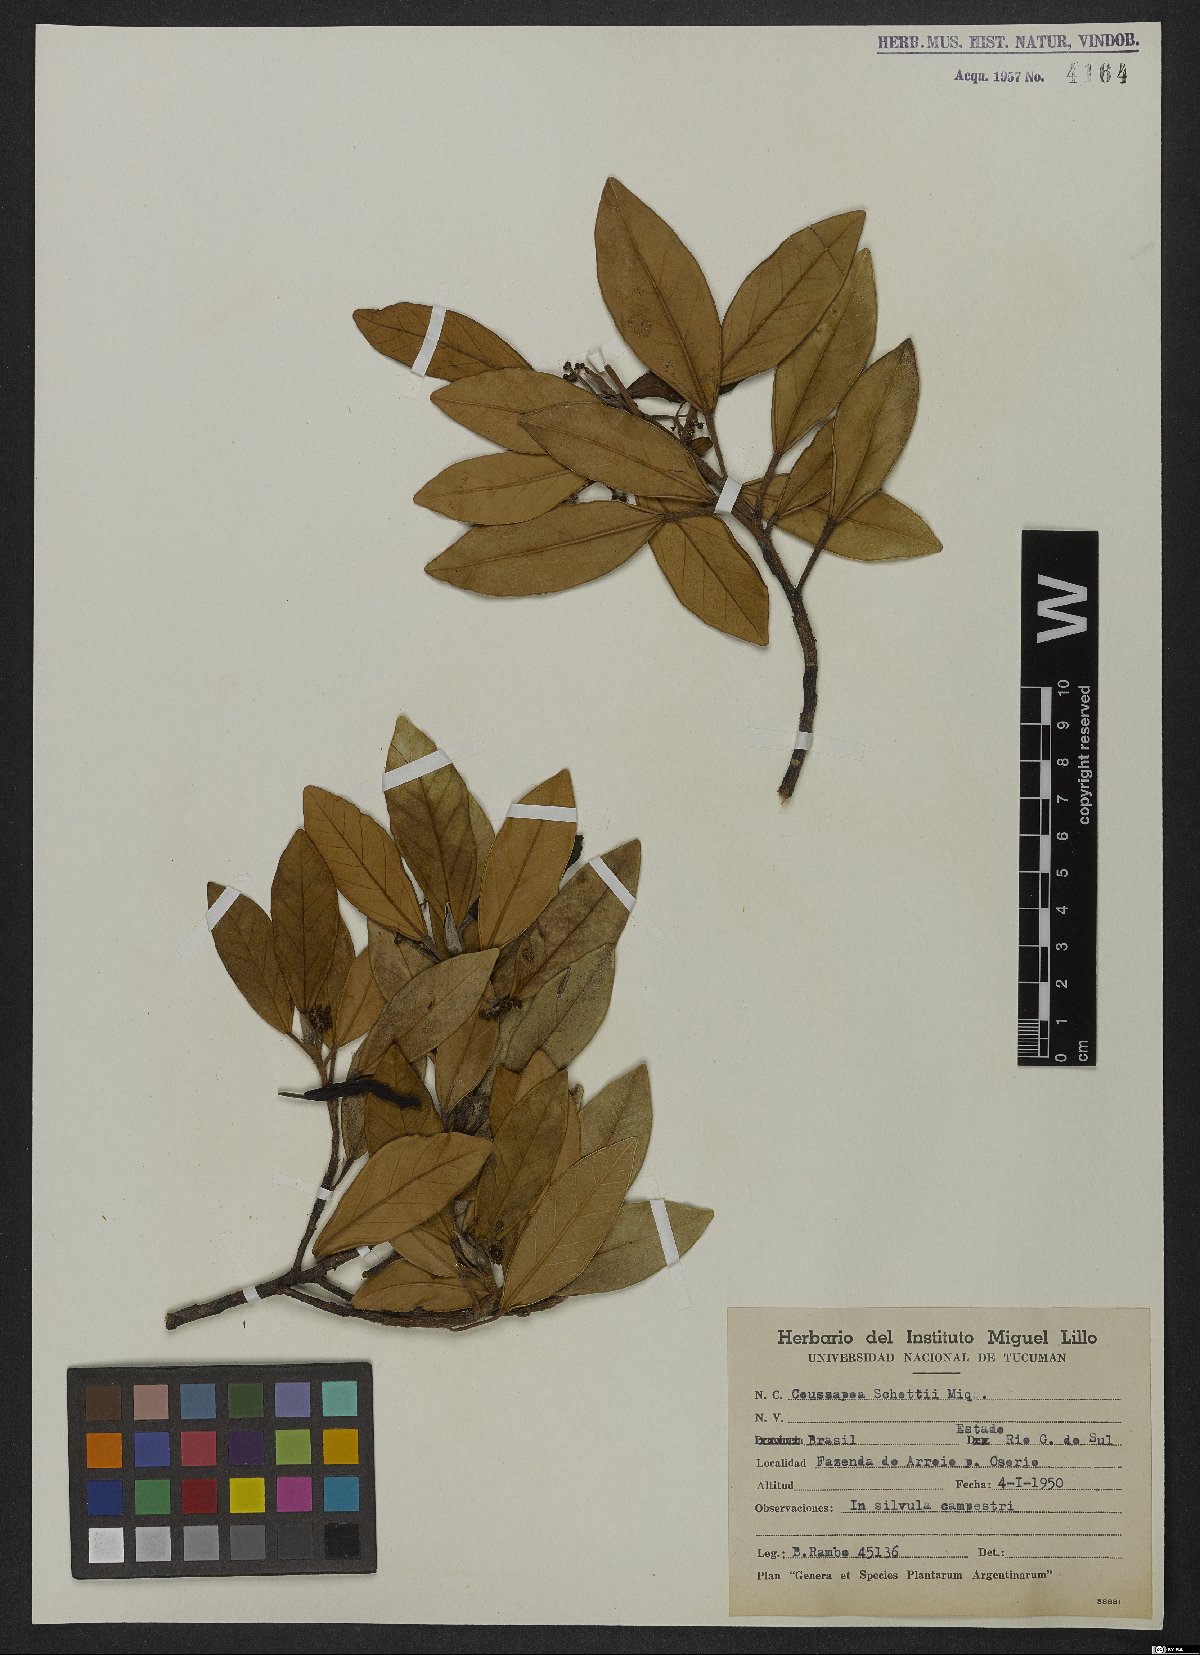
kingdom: Plantae
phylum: Tracheophyta
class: Magnoliopsida
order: Rosales
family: Urticaceae
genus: Coussapoa
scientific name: Coussapoa microcarpa
